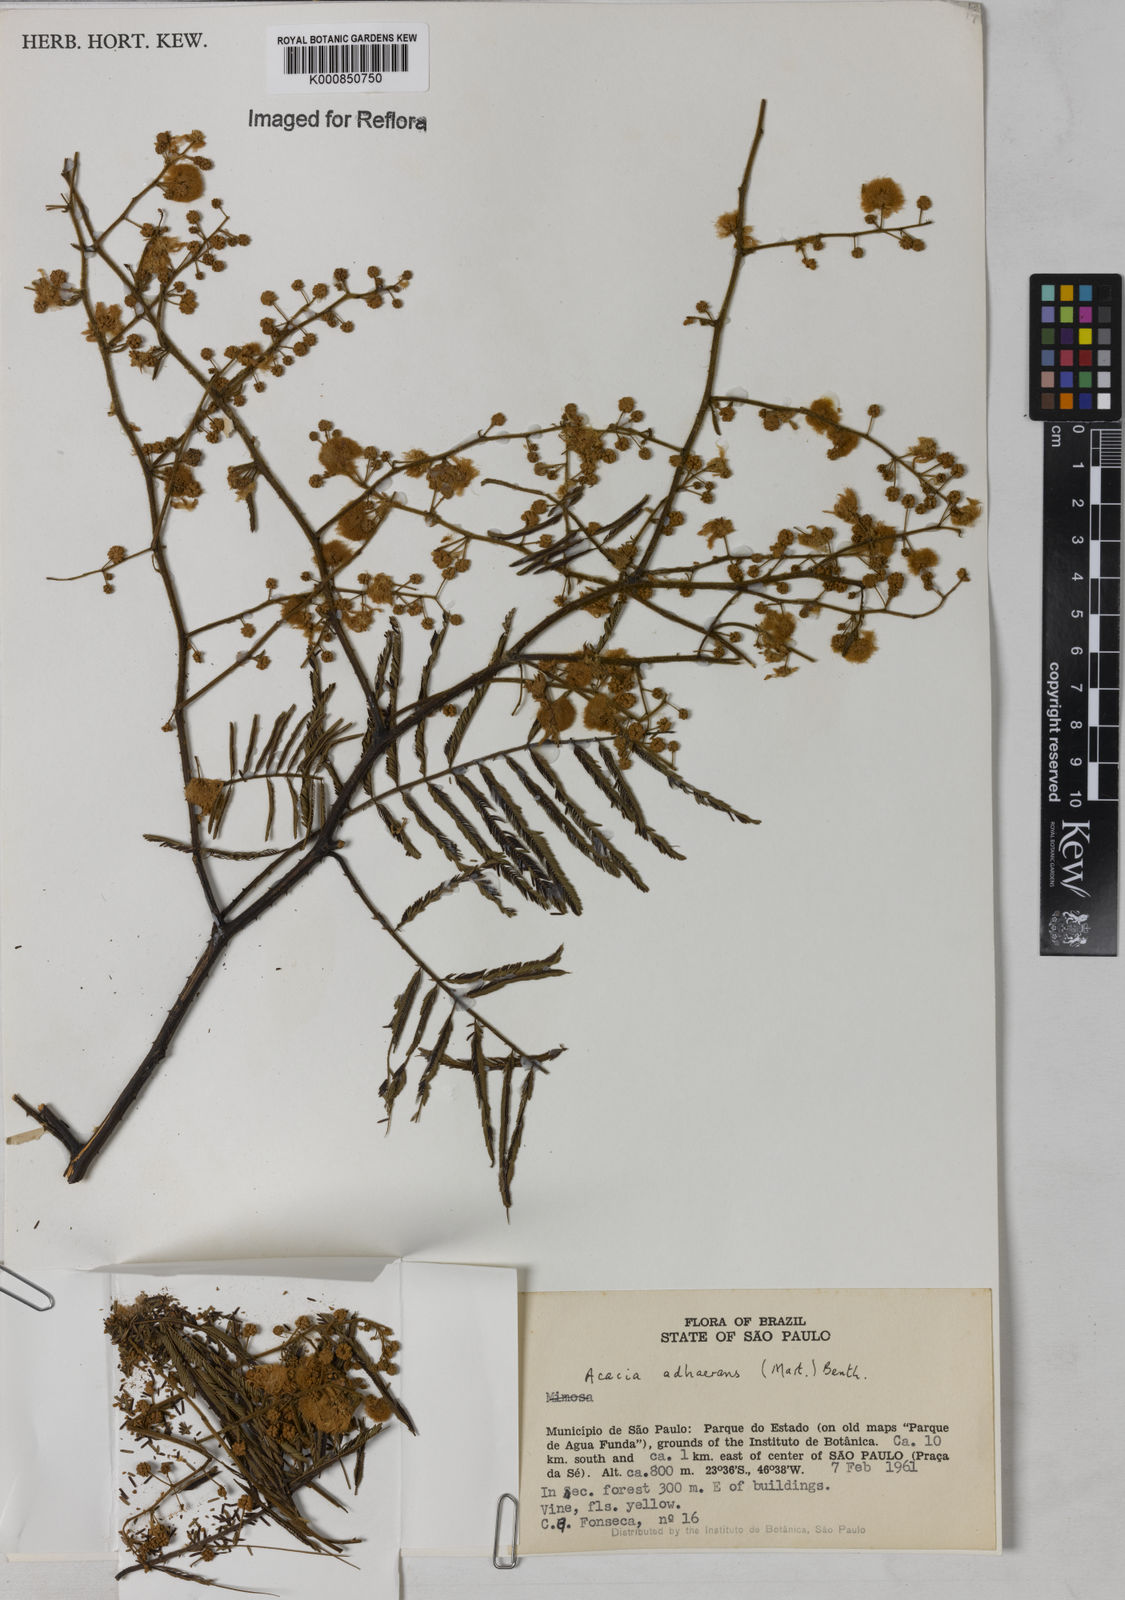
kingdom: Plantae
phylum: Tracheophyta
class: Magnoliopsida
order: Fabales
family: Fabaceae
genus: Senegalia
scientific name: Senegalia martiusiana
